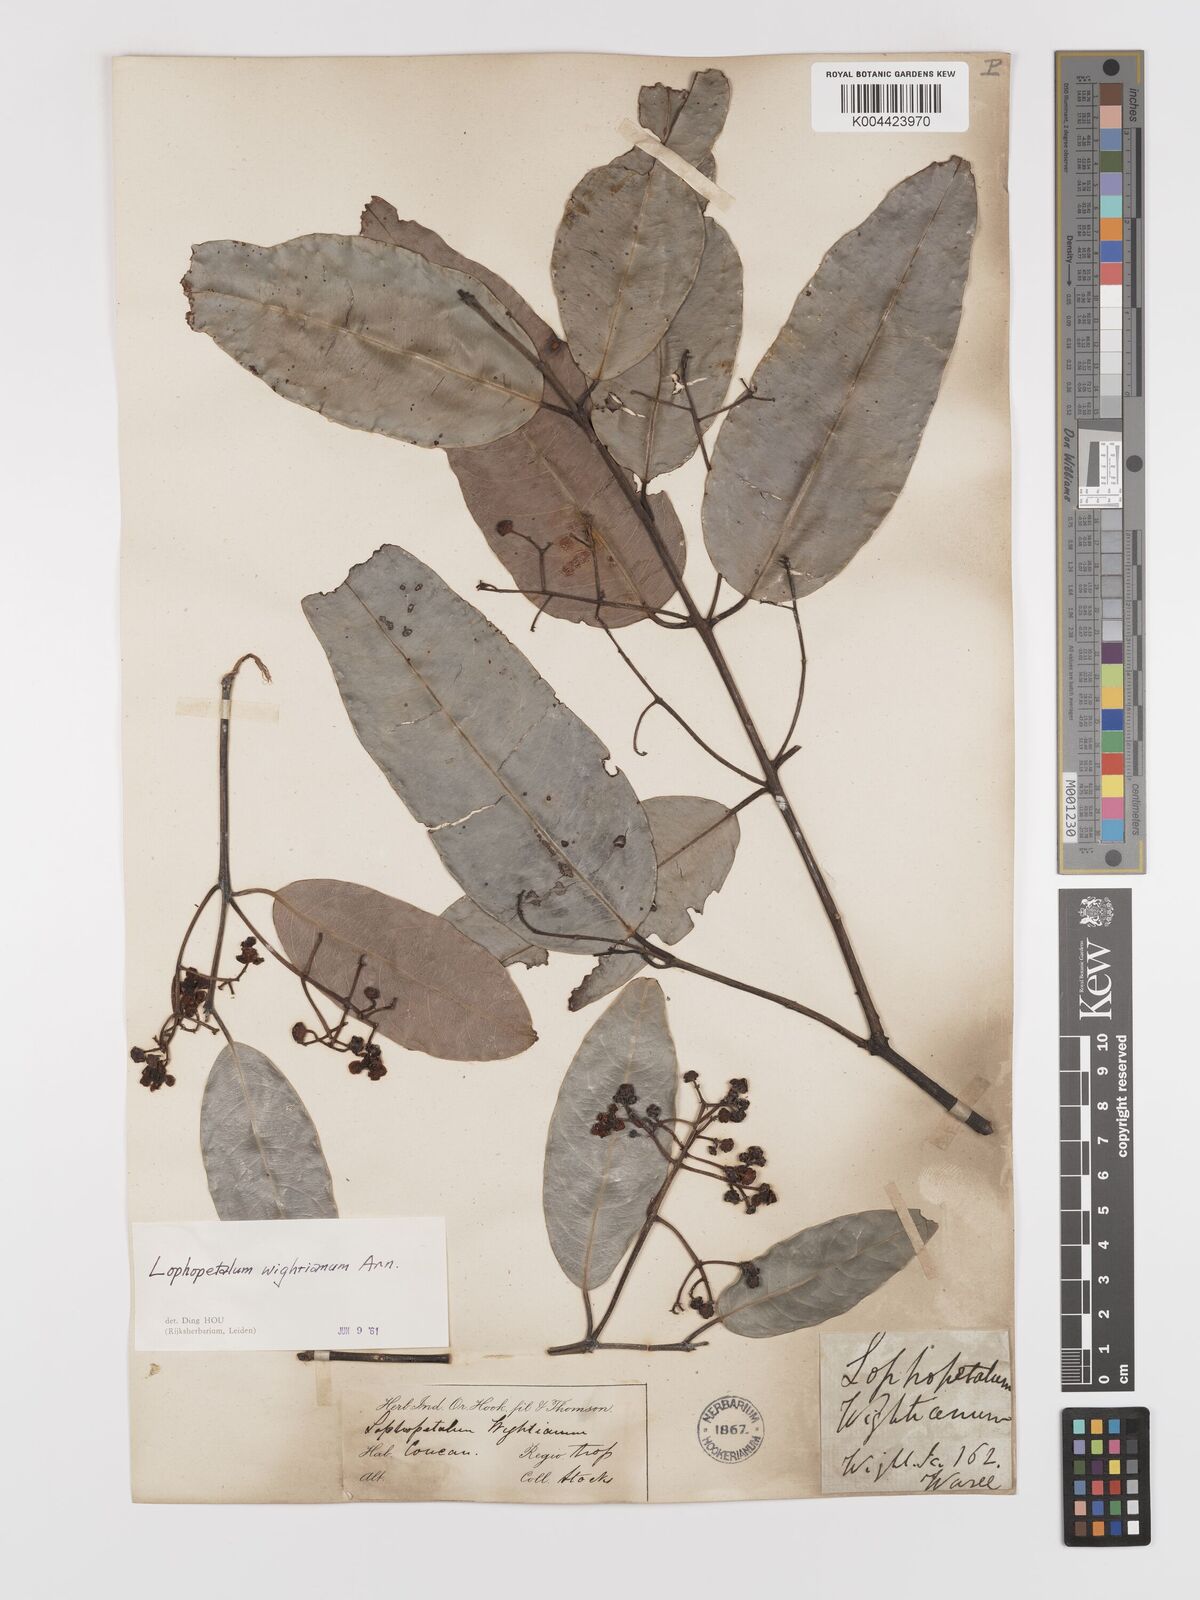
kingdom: Plantae
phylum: Tracheophyta
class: Magnoliopsida
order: Celastrales
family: Celastraceae
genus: Lophopetalum
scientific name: Lophopetalum wightianum
